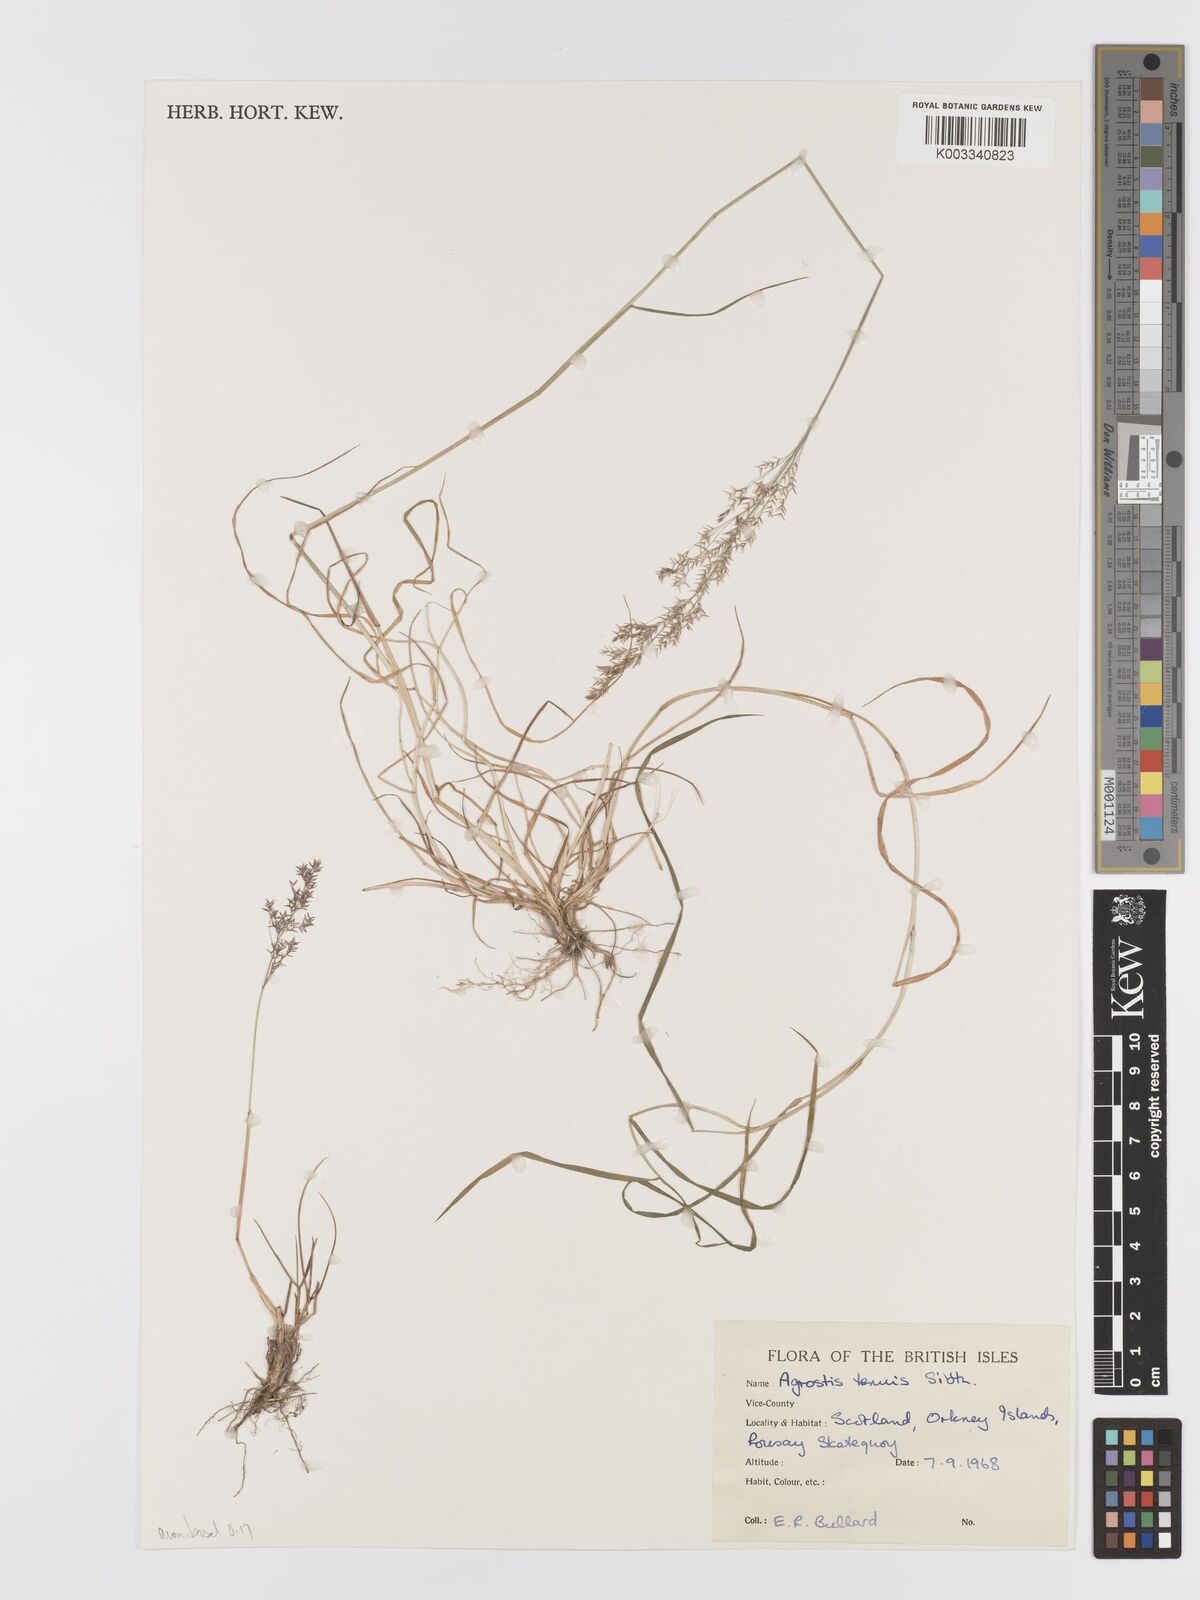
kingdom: Plantae
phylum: Tracheophyta
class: Liliopsida
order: Poales
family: Poaceae
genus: Agrostis
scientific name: Agrostis capillaris
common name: Colonial bentgrass
